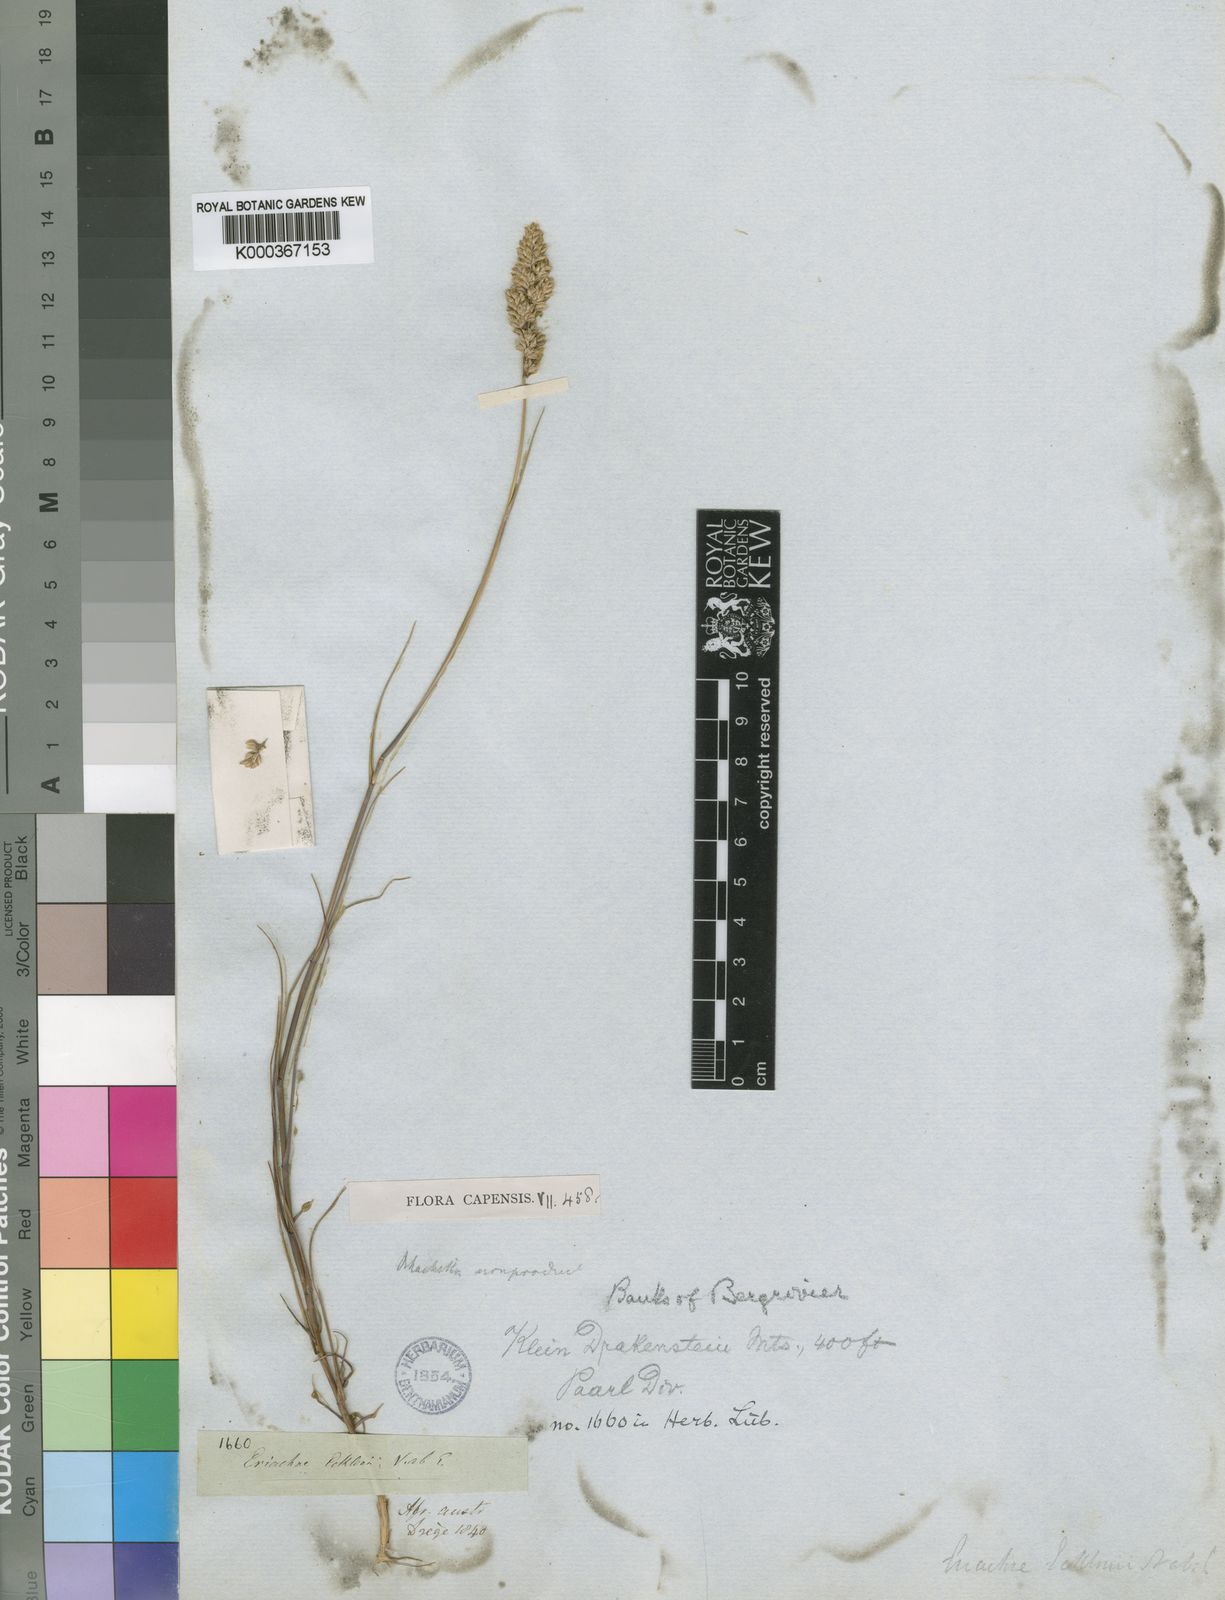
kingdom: Plantae
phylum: Tracheophyta
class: Liliopsida
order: Poales
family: Poaceae
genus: Pentameris
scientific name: Pentameris ecklonii
